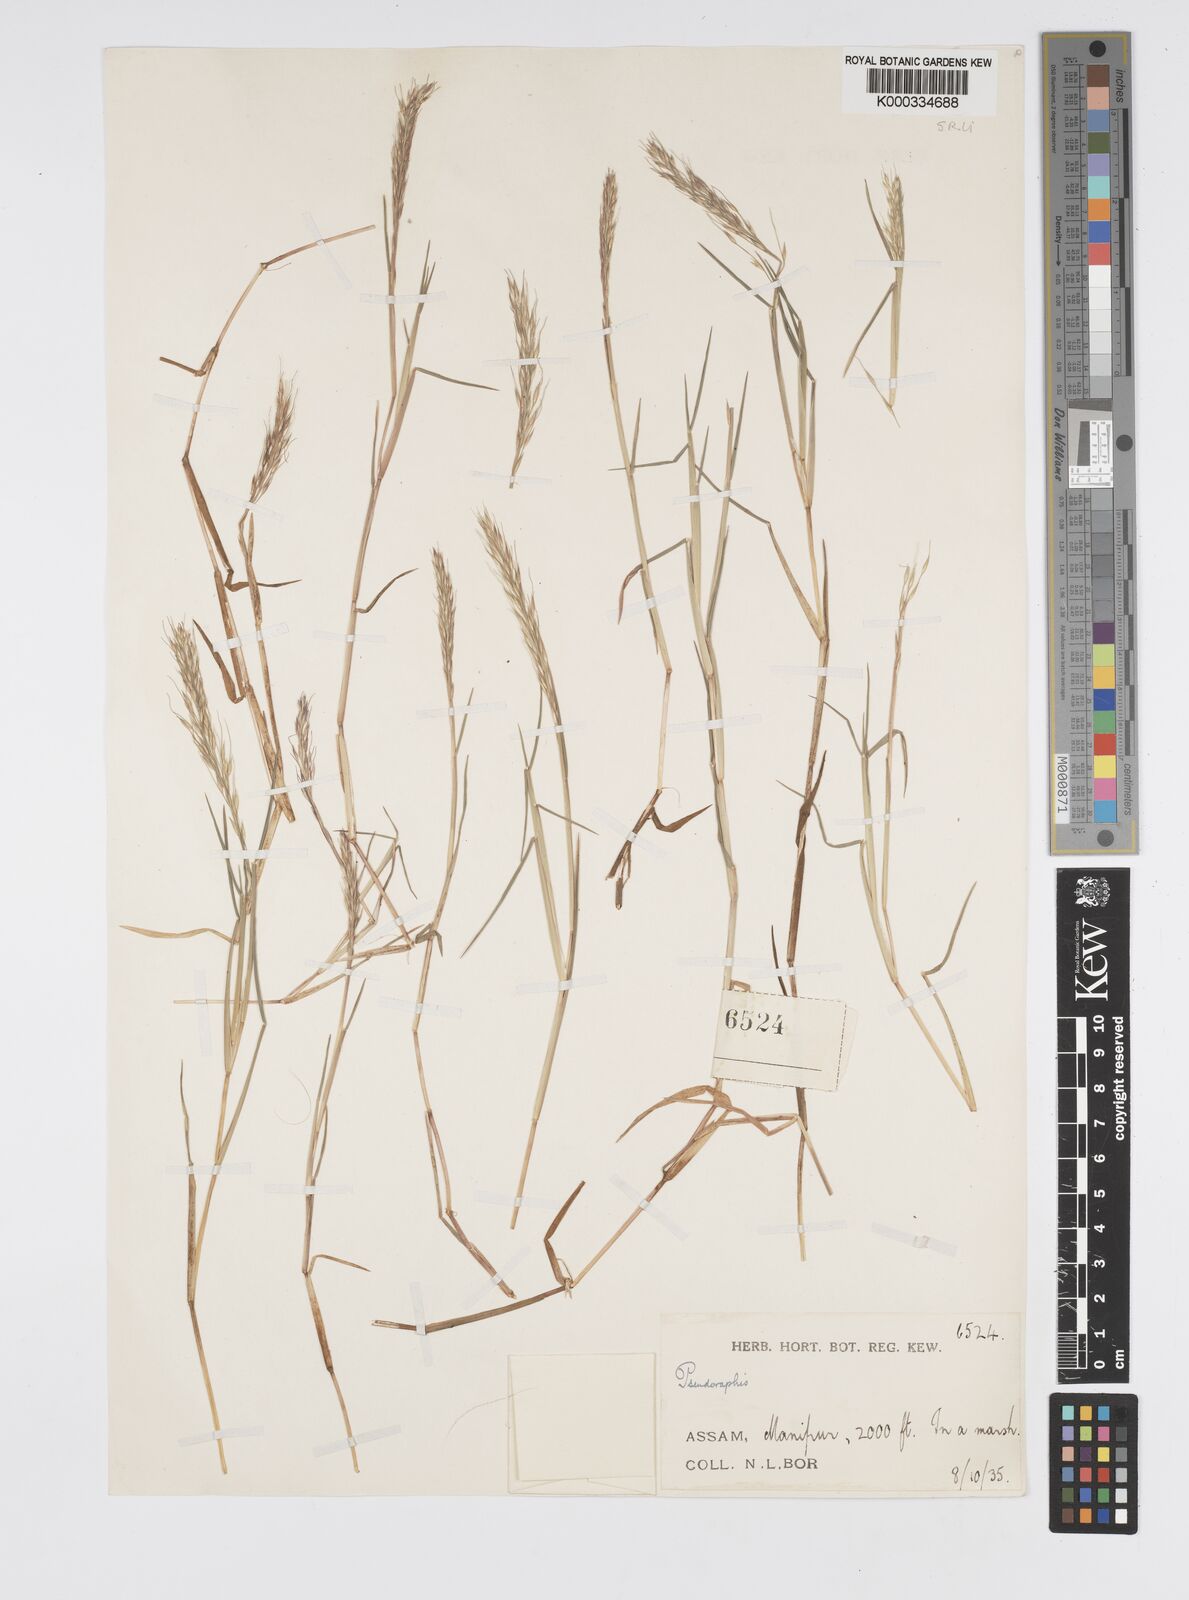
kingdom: Plantae
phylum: Tracheophyta
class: Liliopsida
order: Poales
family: Poaceae
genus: Pseudoraphis
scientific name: Pseudoraphis sordida
